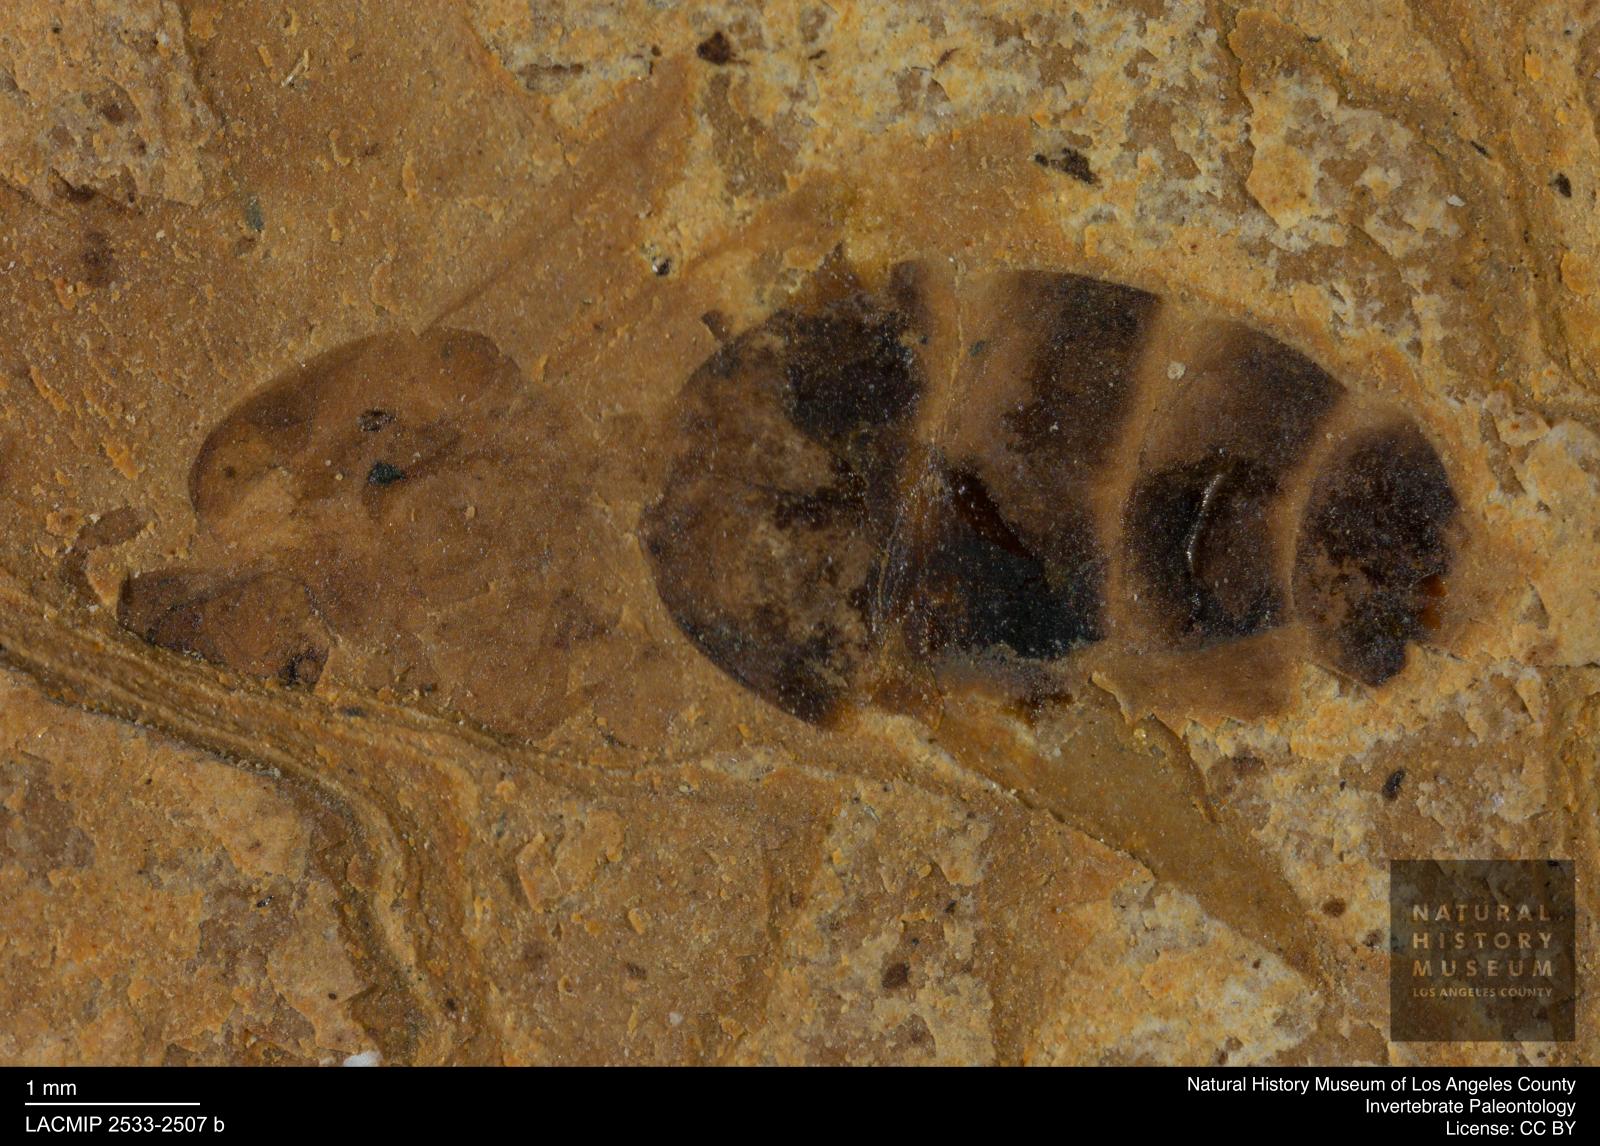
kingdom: Animalia
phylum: Arthropoda
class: Insecta
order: Hymenoptera
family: Formicidae
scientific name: Formicidae
